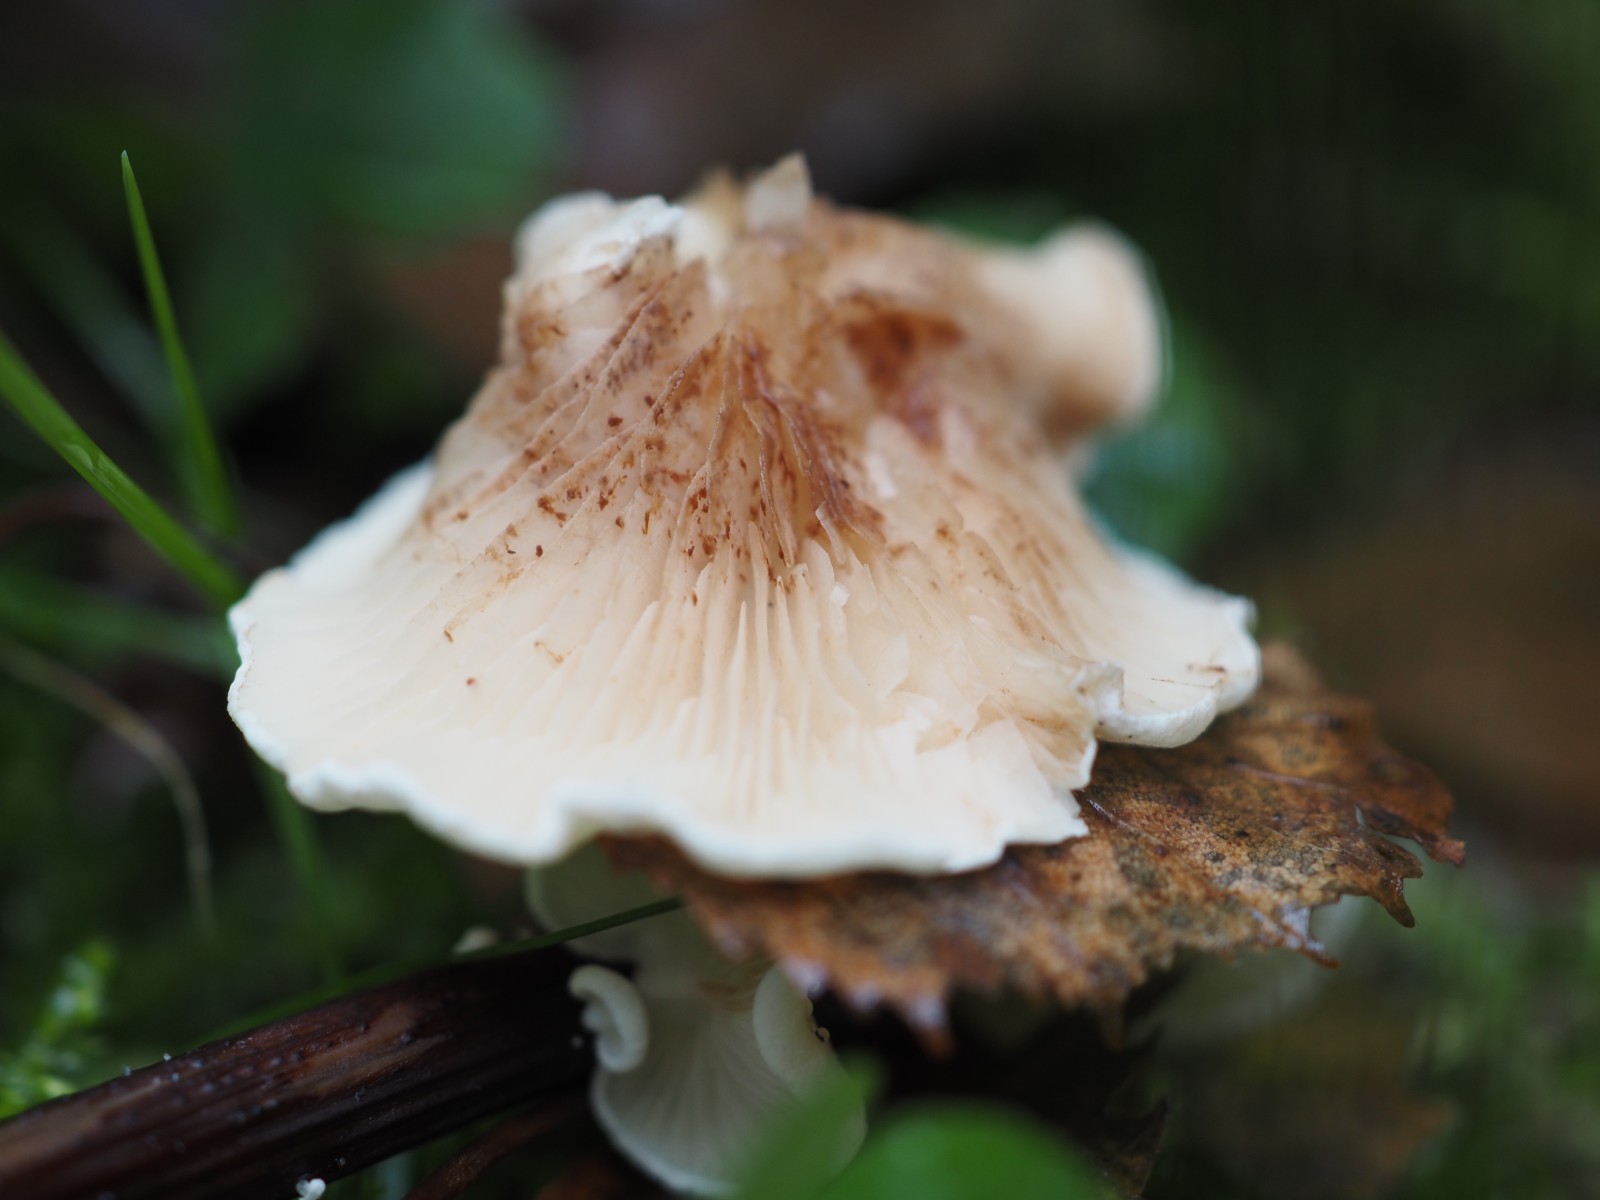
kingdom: Fungi
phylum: Basidiomycota
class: Agaricomycetes
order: Agaricales
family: Crepidotaceae
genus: Crepidotus
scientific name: Crepidotus luteolus
